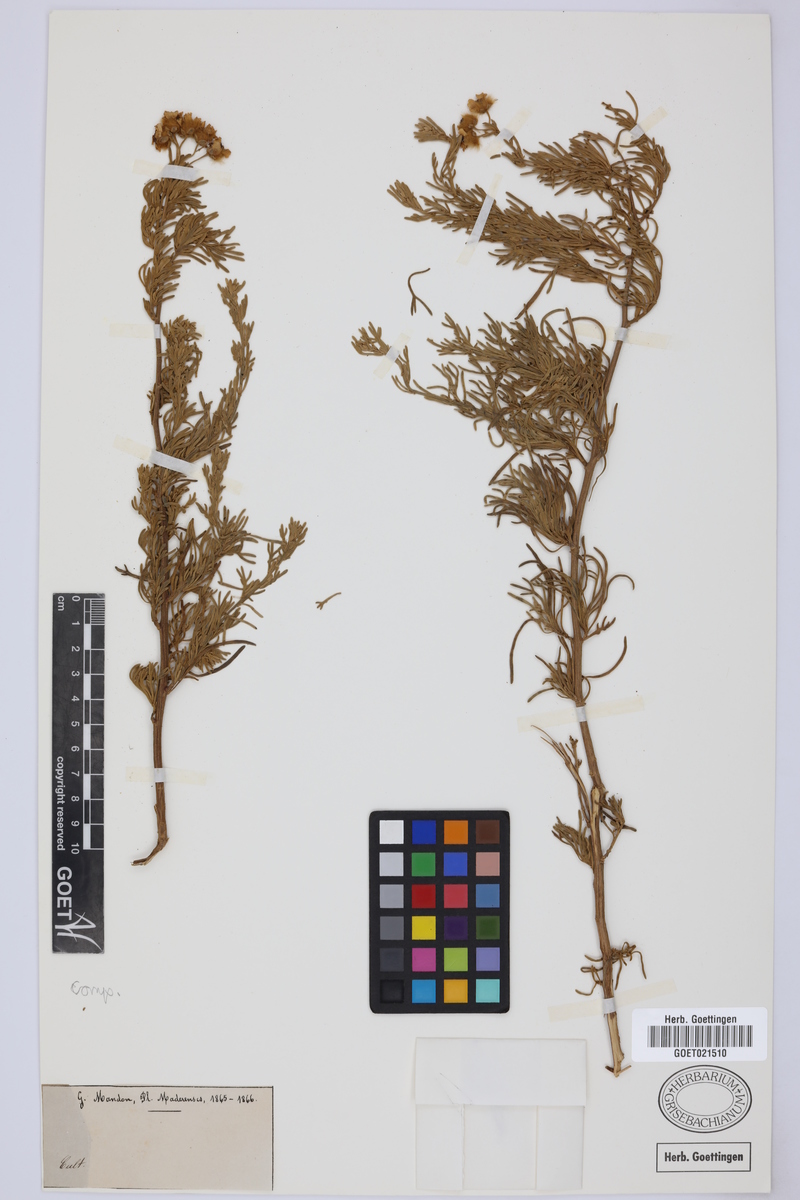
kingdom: Plantae
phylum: Tracheophyta
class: Magnoliopsida
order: Asterales
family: Asteraceae
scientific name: Asteraceae
